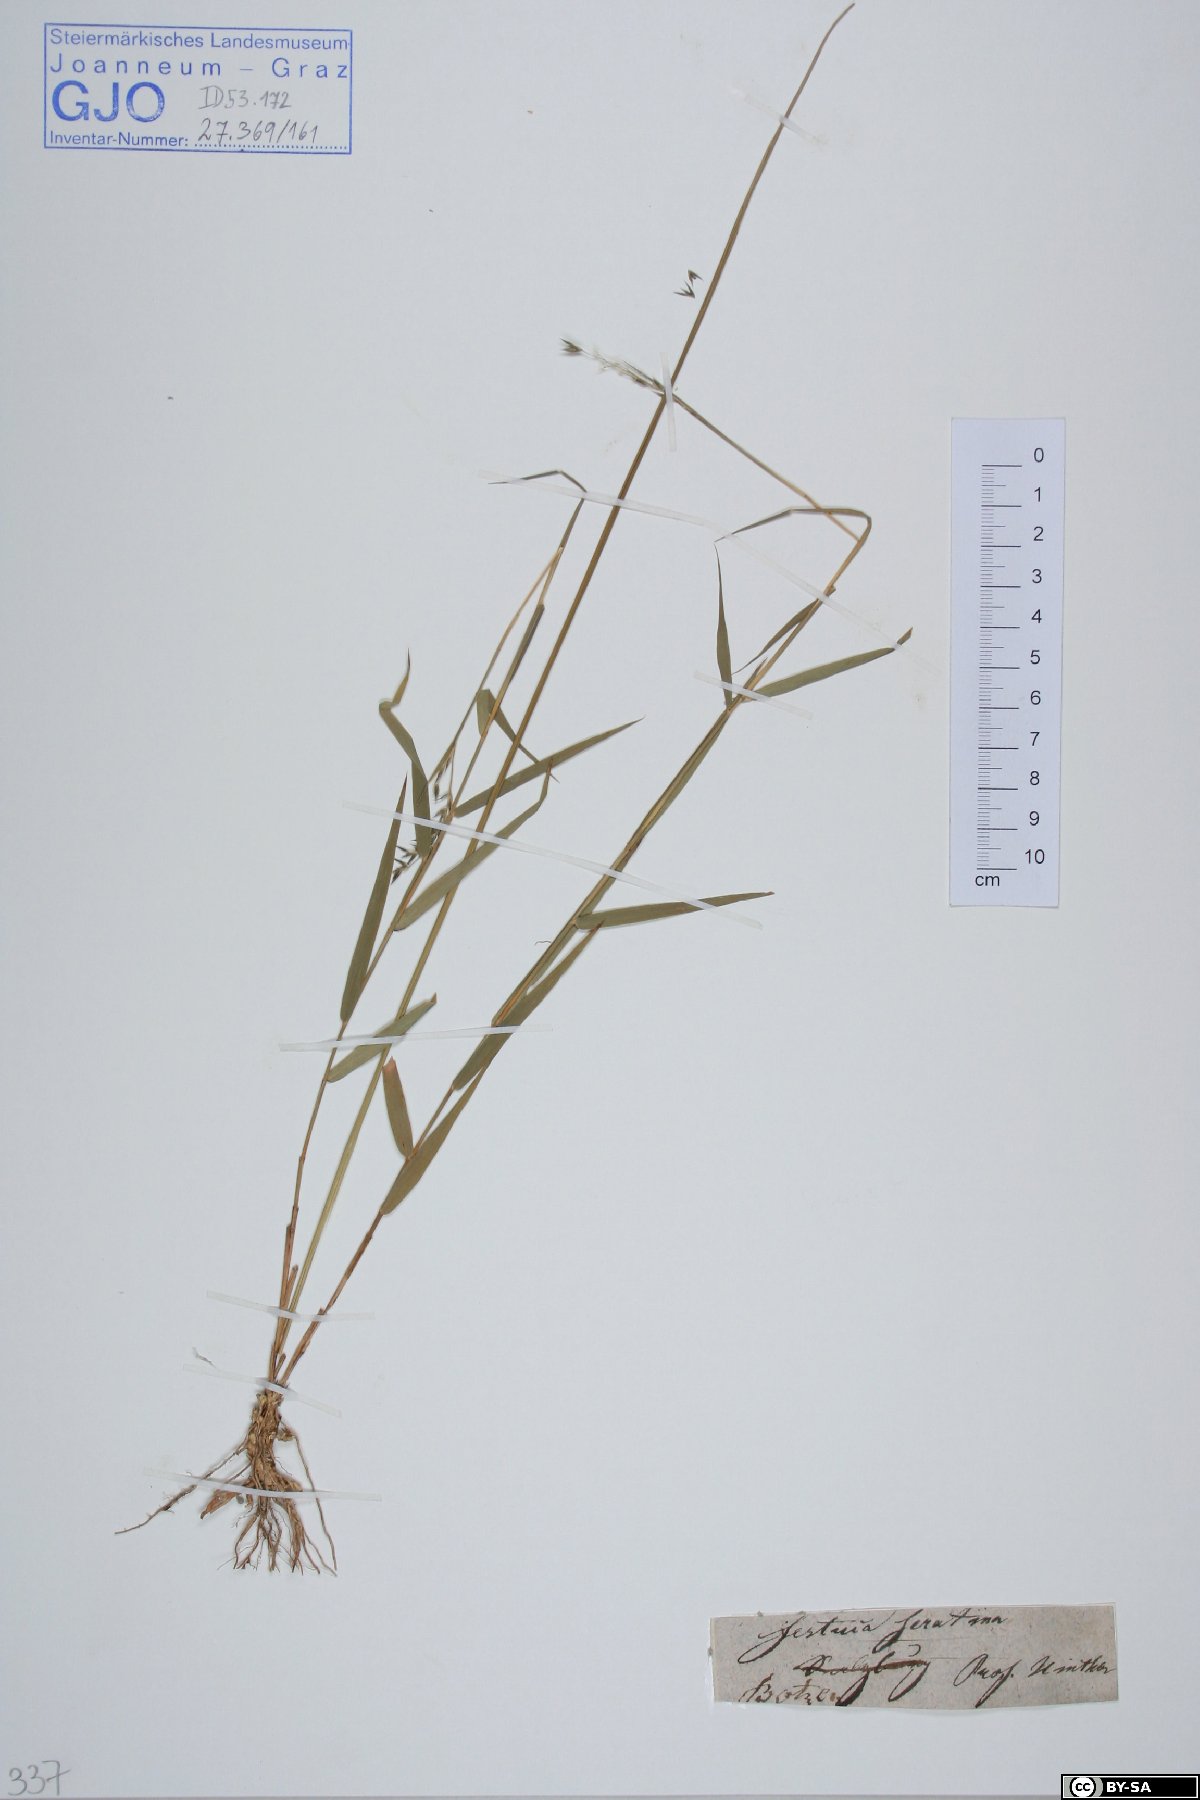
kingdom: Plantae
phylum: Tracheophyta
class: Liliopsida
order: Poales
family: Poaceae
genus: Cleistogenes
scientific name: Cleistogenes serotina
